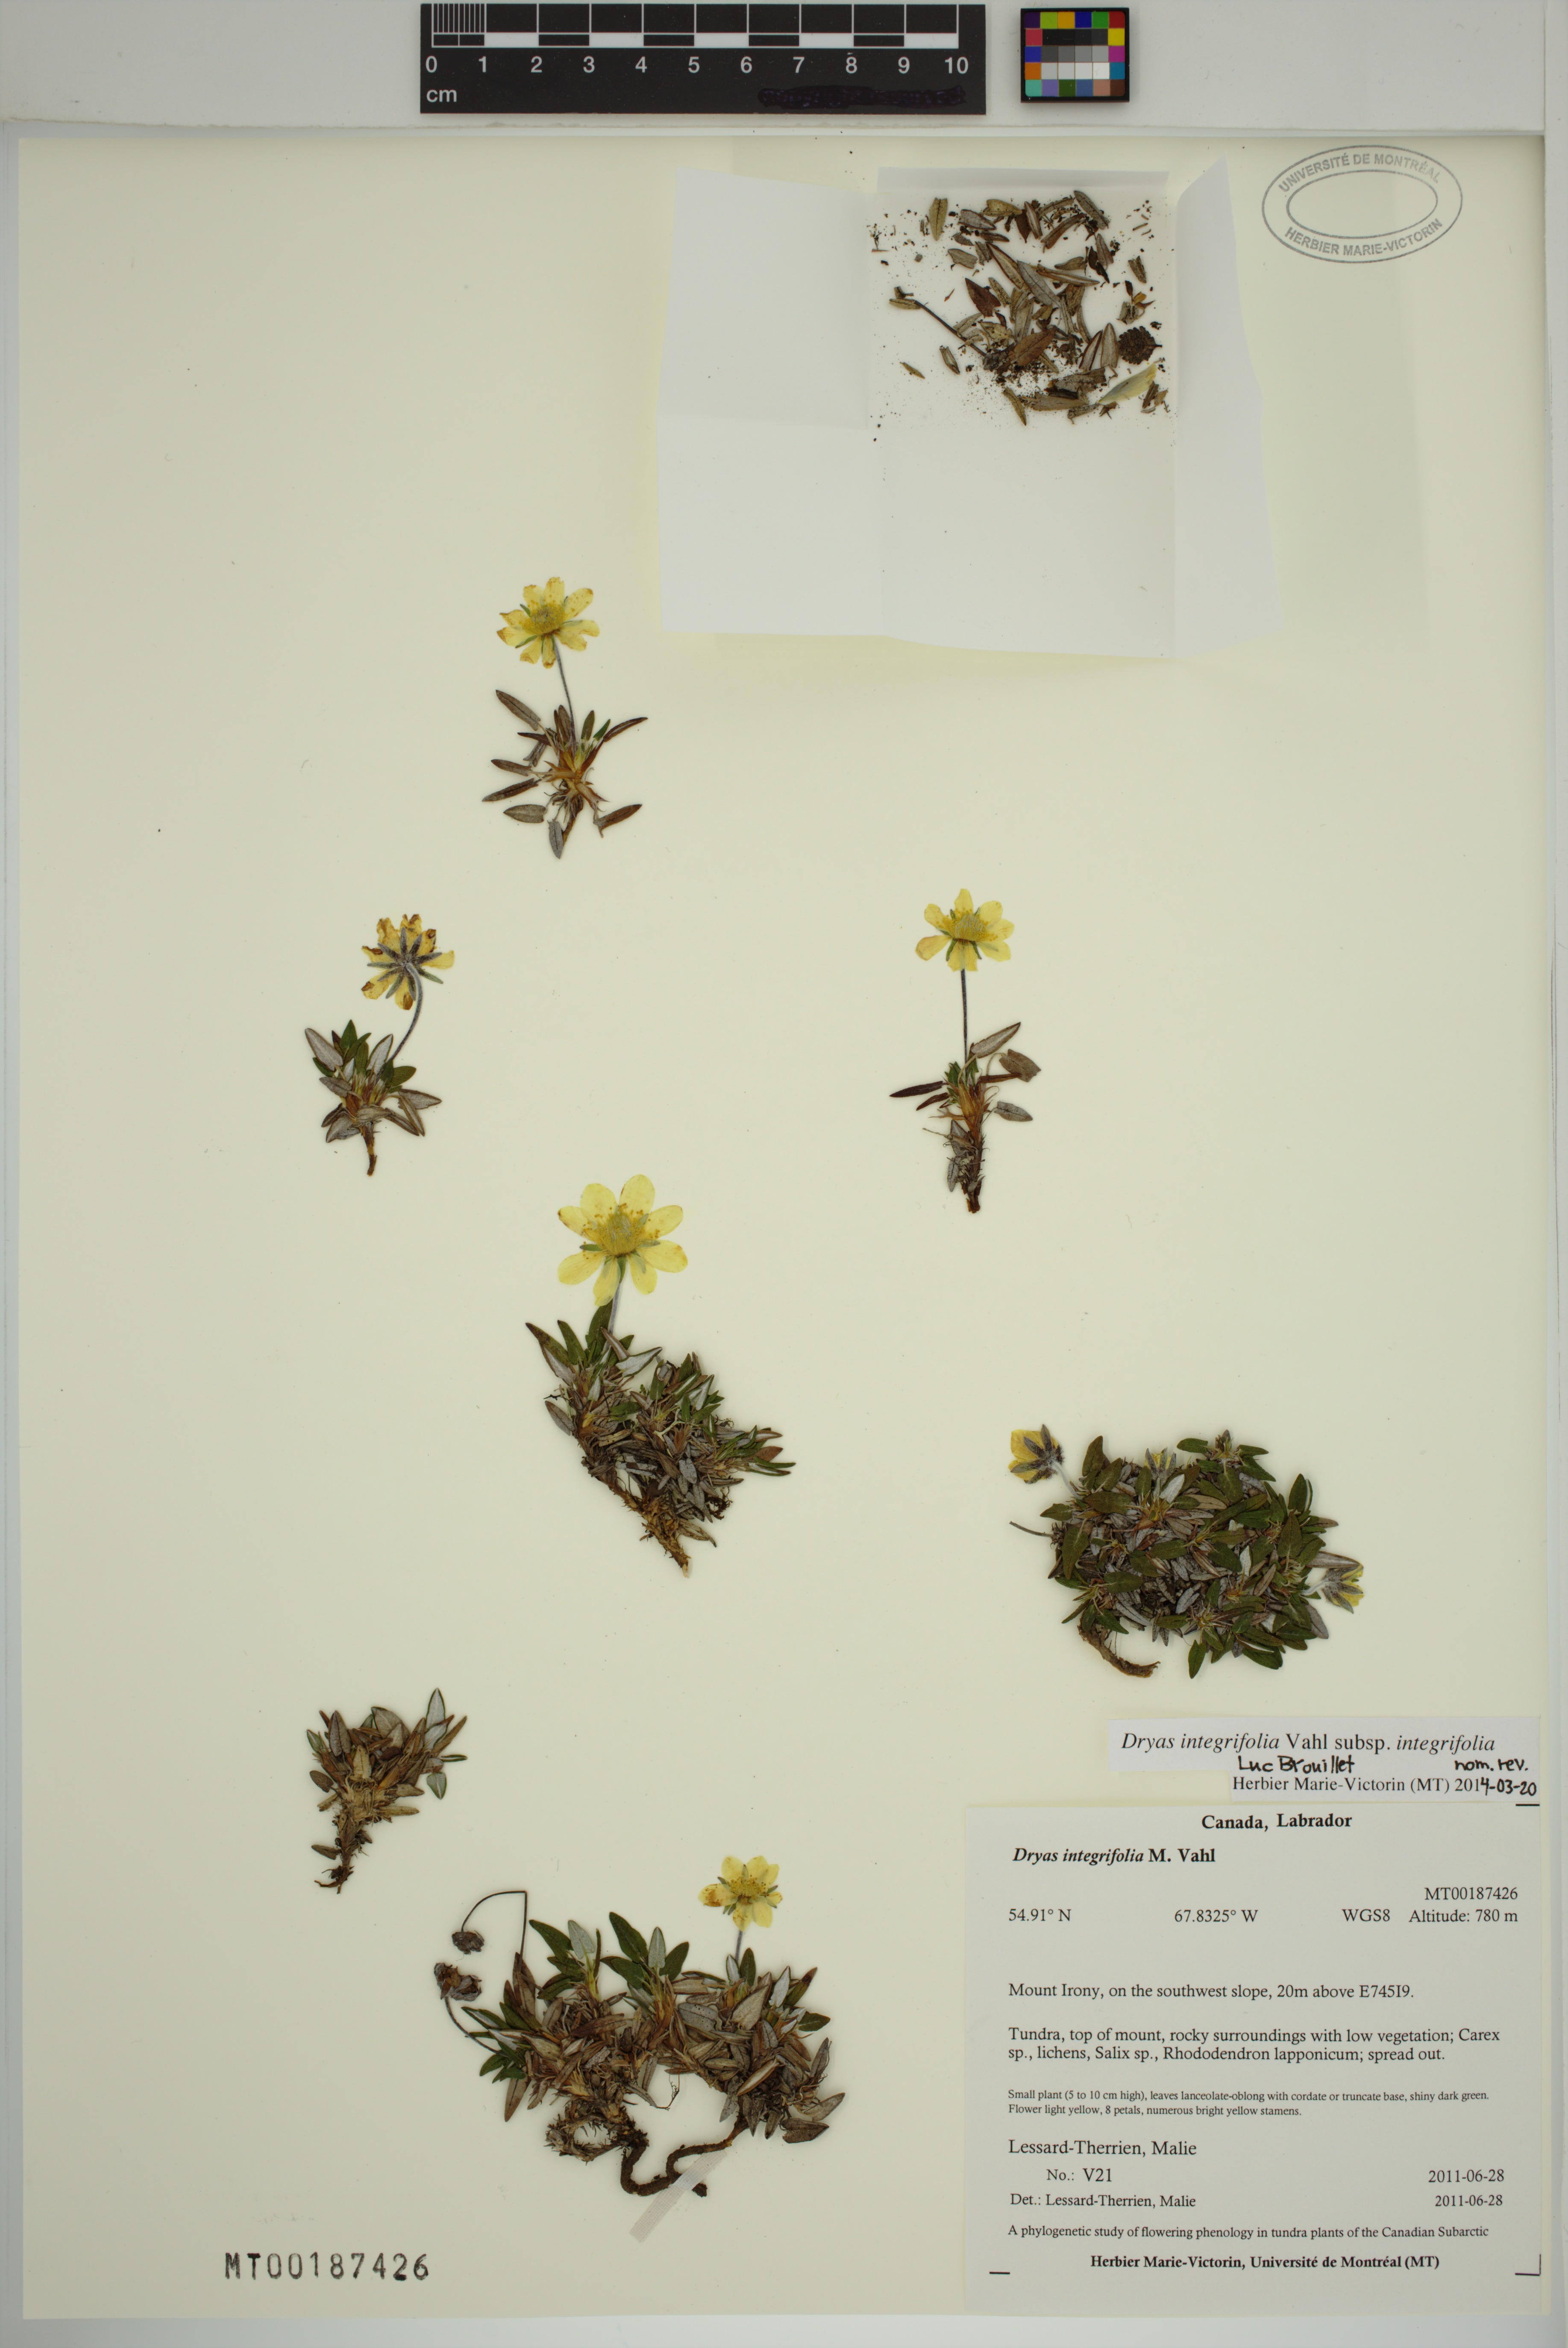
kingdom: Plantae
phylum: Tracheophyta
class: Magnoliopsida
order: Rosales
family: Rosaceae
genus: Dryas
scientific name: Dryas integrifolia
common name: Entire-leaved mountain avens
